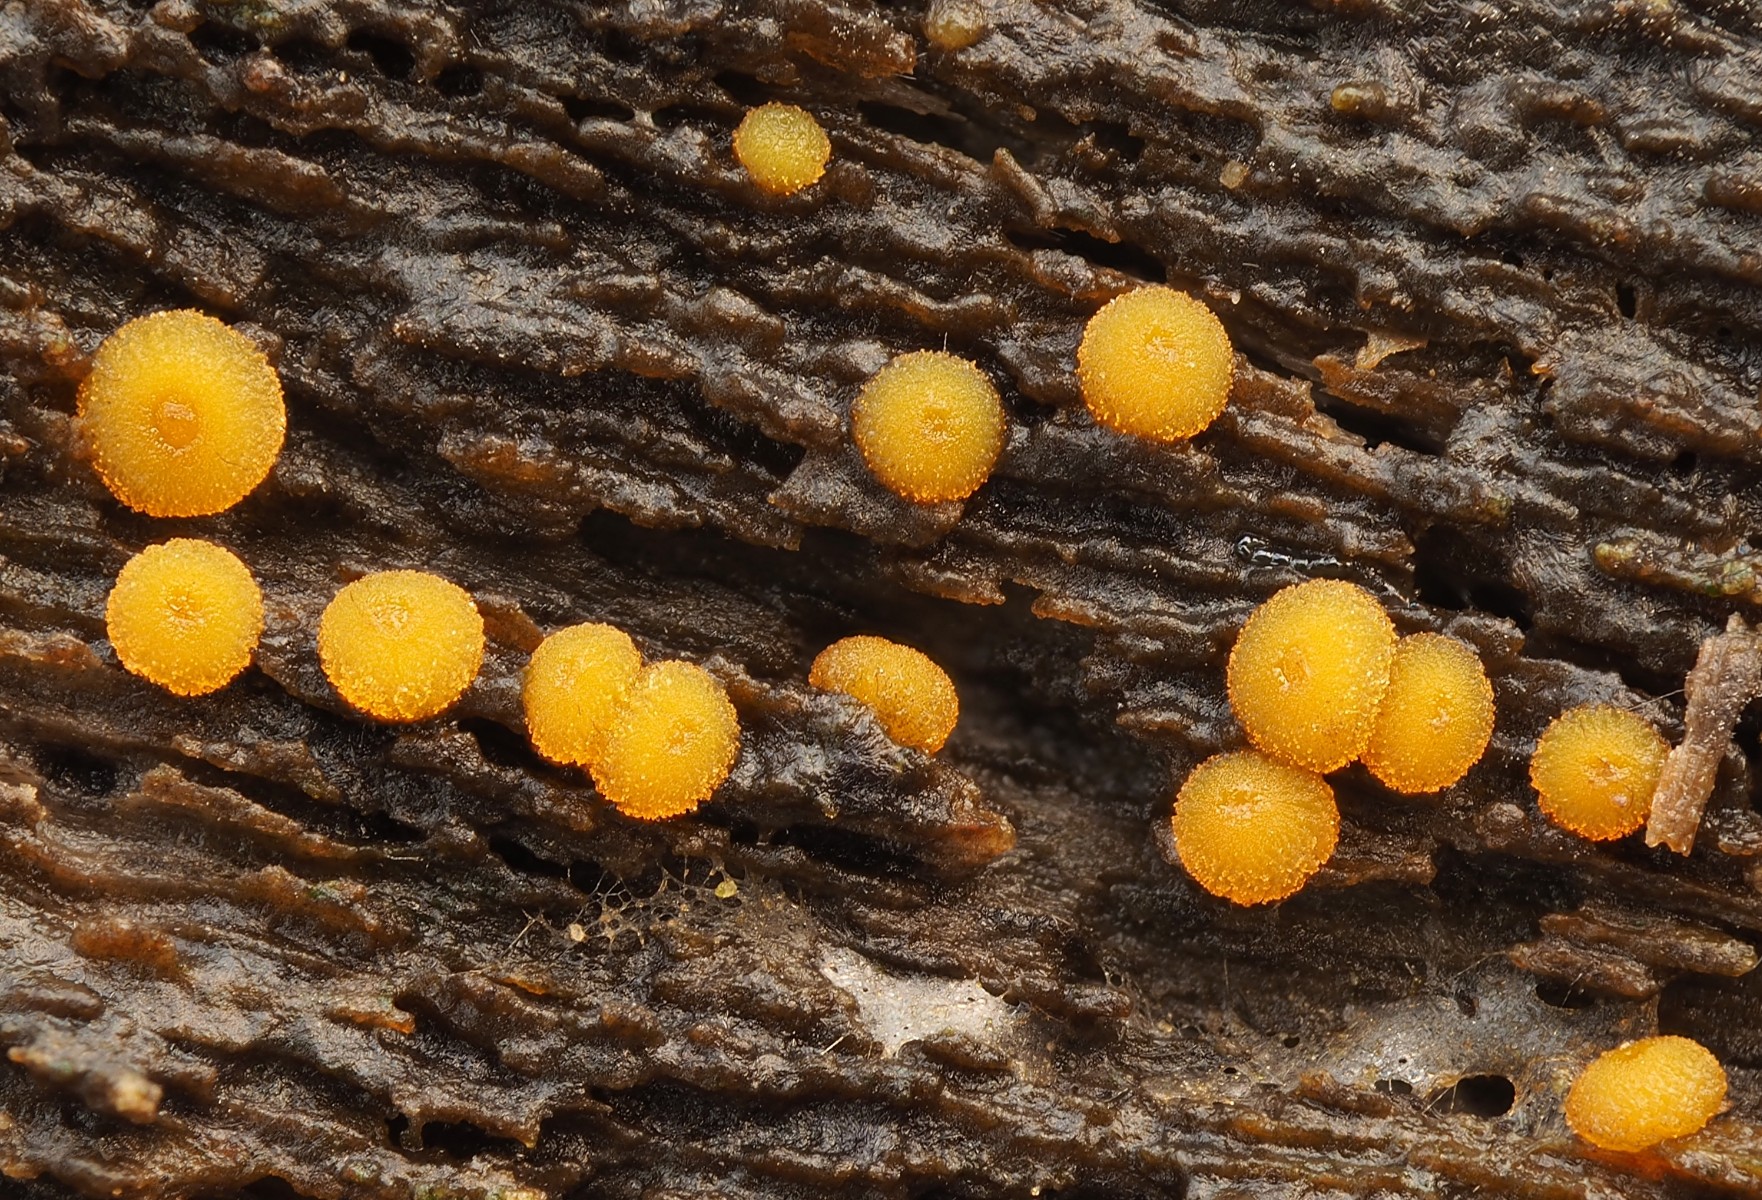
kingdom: Fungi
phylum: Ascomycota
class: Pezizomycetes
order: Pezizales
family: Pyronemataceae
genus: Miladina
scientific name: Miladina lecithina
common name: vandbæger
